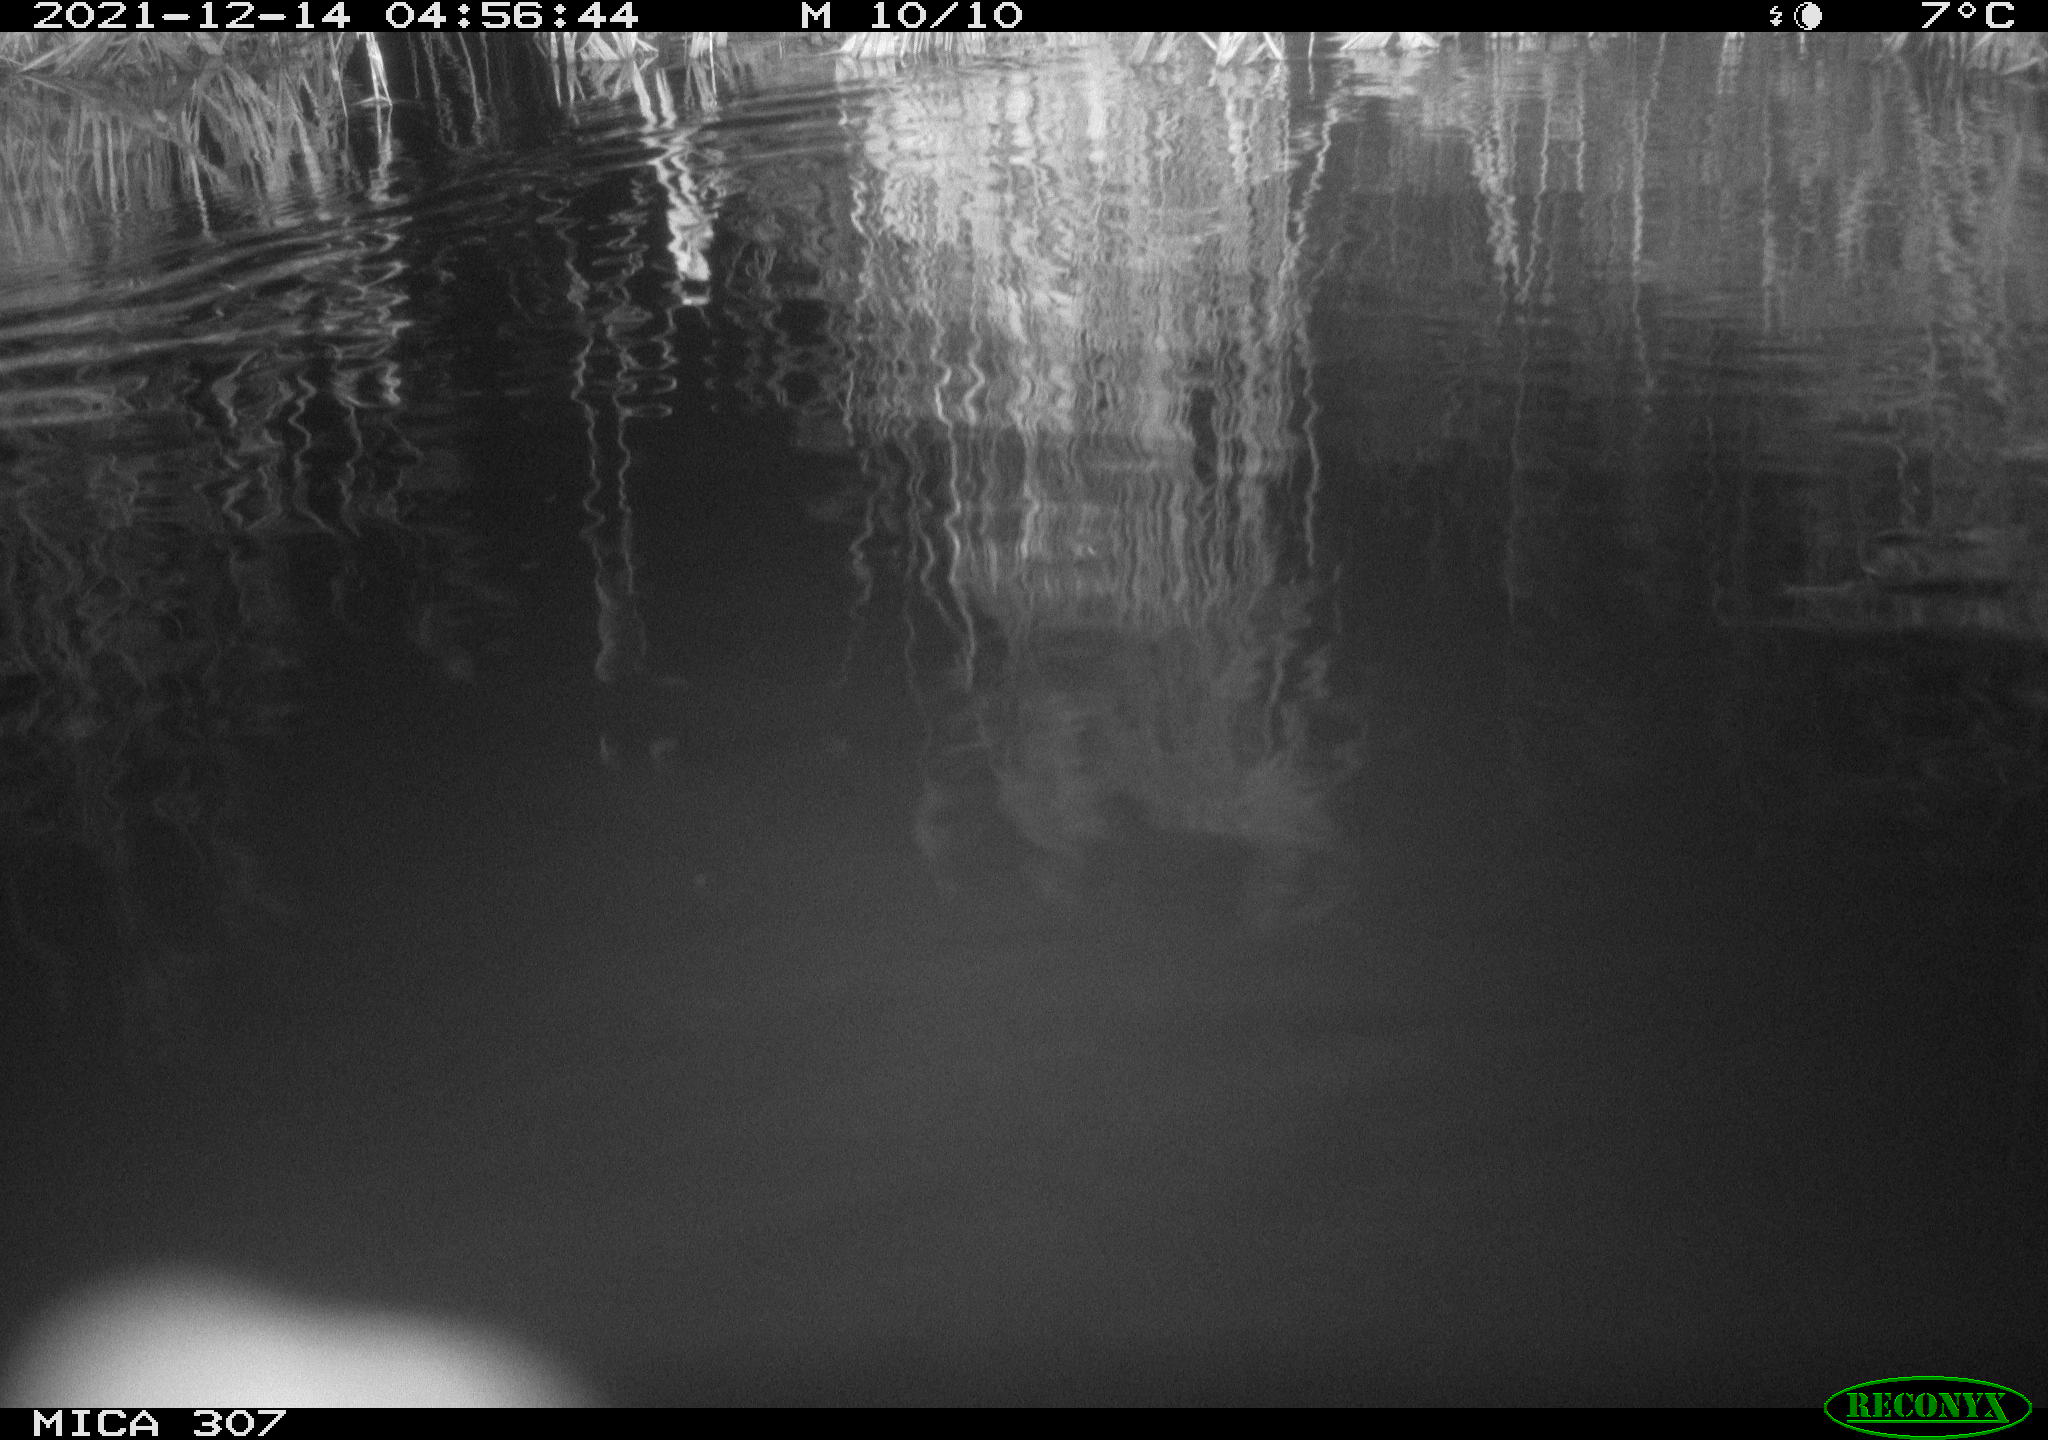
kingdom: Animalia
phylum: Chordata
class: Mammalia
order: Rodentia
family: Muridae
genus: Rattus
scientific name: Rattus norvegicus
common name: Brown rat
